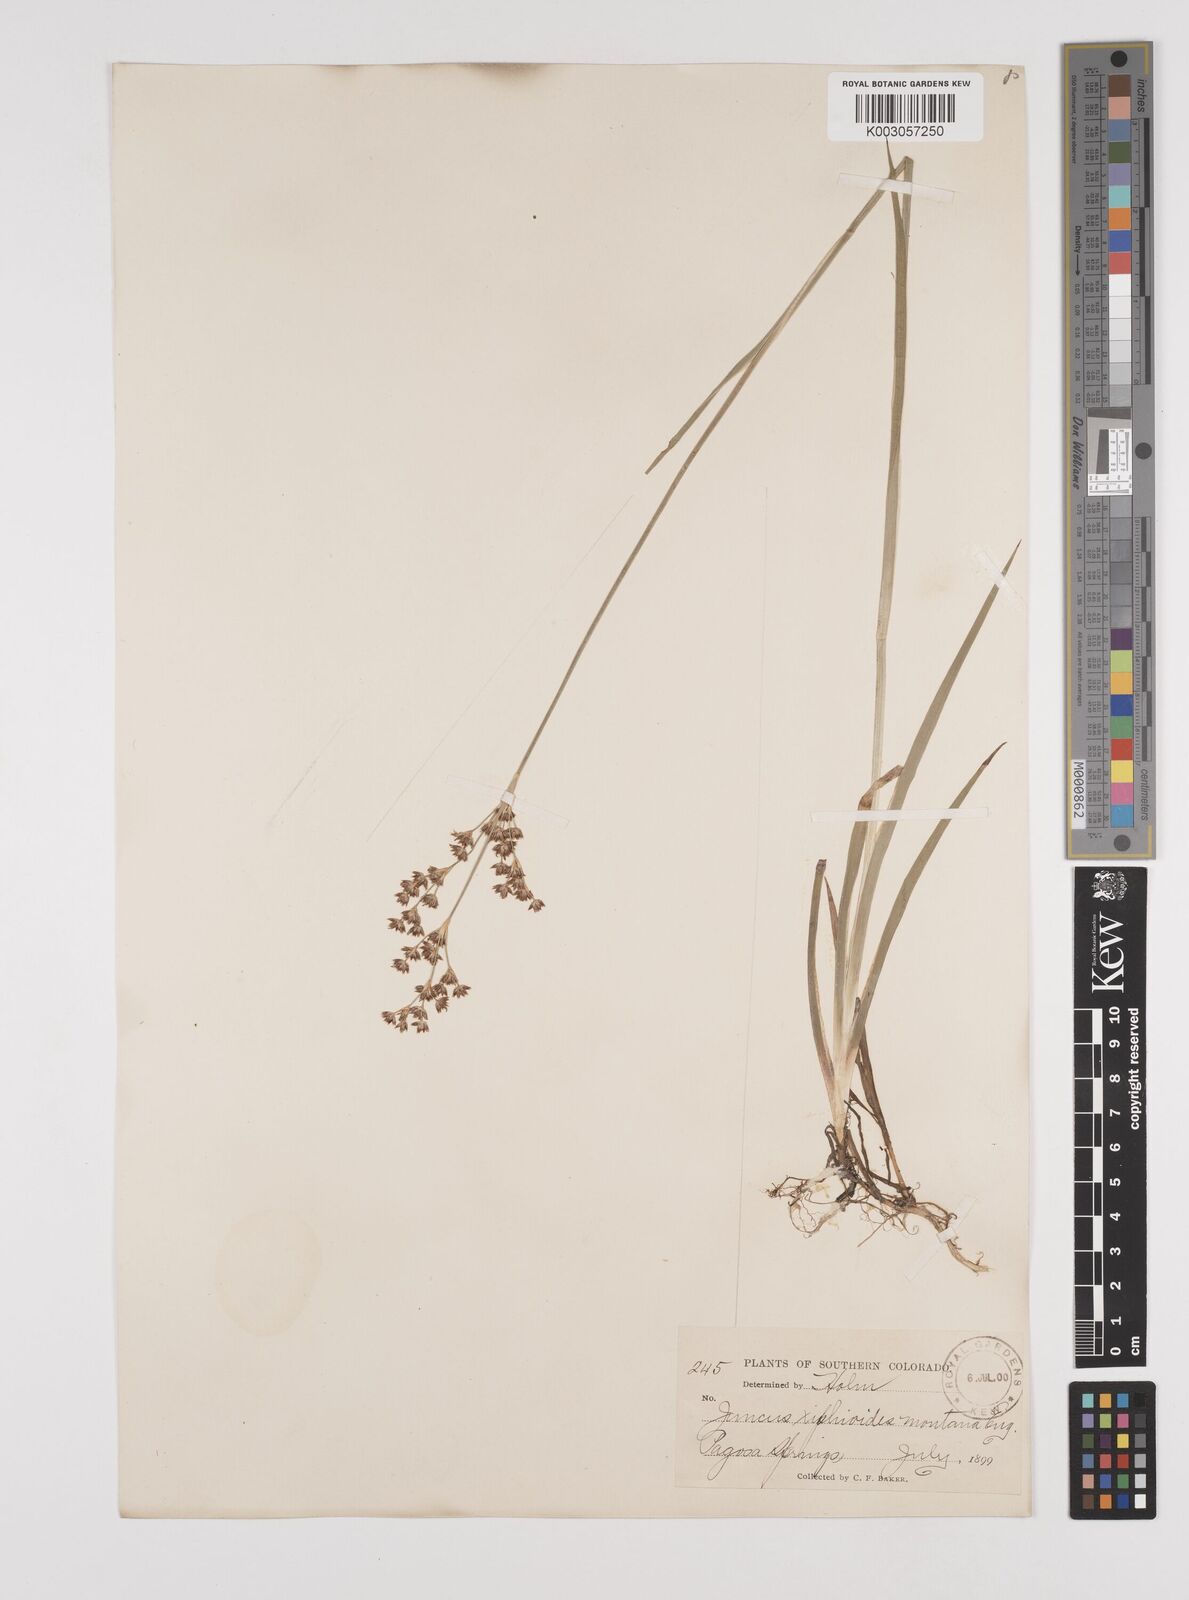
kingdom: Plantae
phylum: Tracheophyta
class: Liliopsida
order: Poales
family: Juncaceae
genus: Juncus
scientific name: Juncus xiphioides
